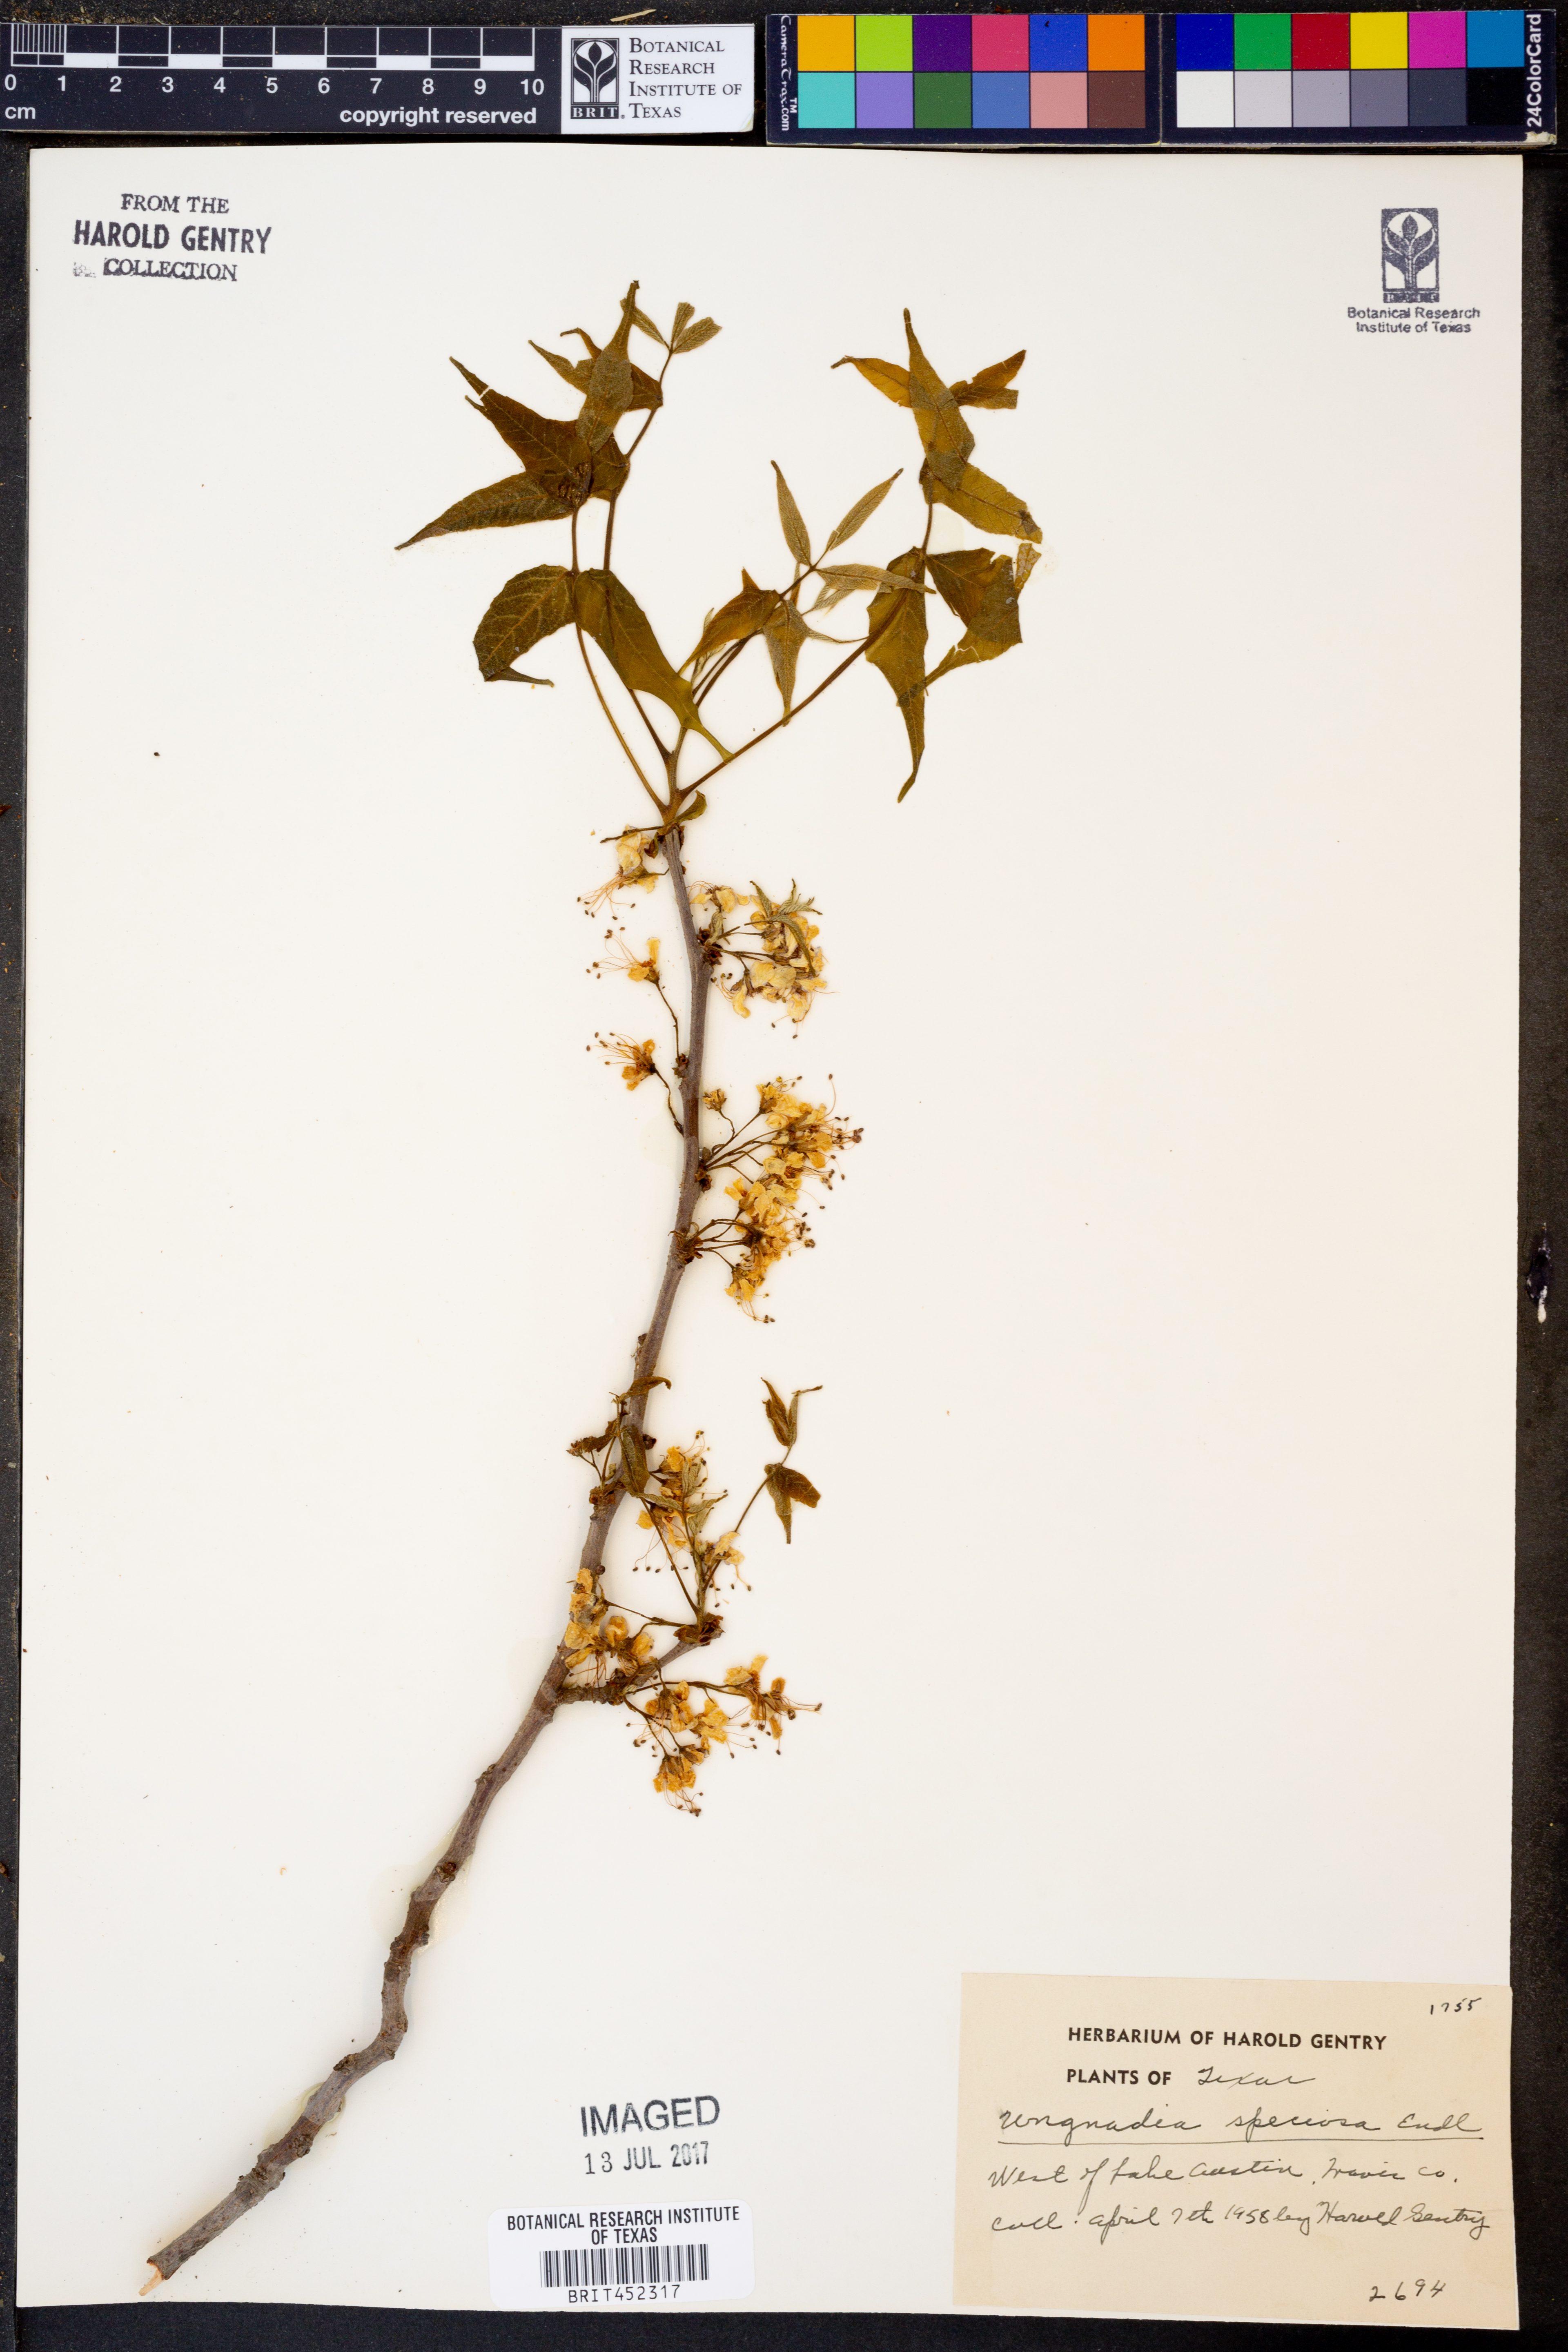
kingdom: Plantae
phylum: Tracheophyta
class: Magnoliopsida
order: Sapindales
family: Sapindaceae
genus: Ungnadia
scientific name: Ungnadia speciosa
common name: Texas-buckeye
